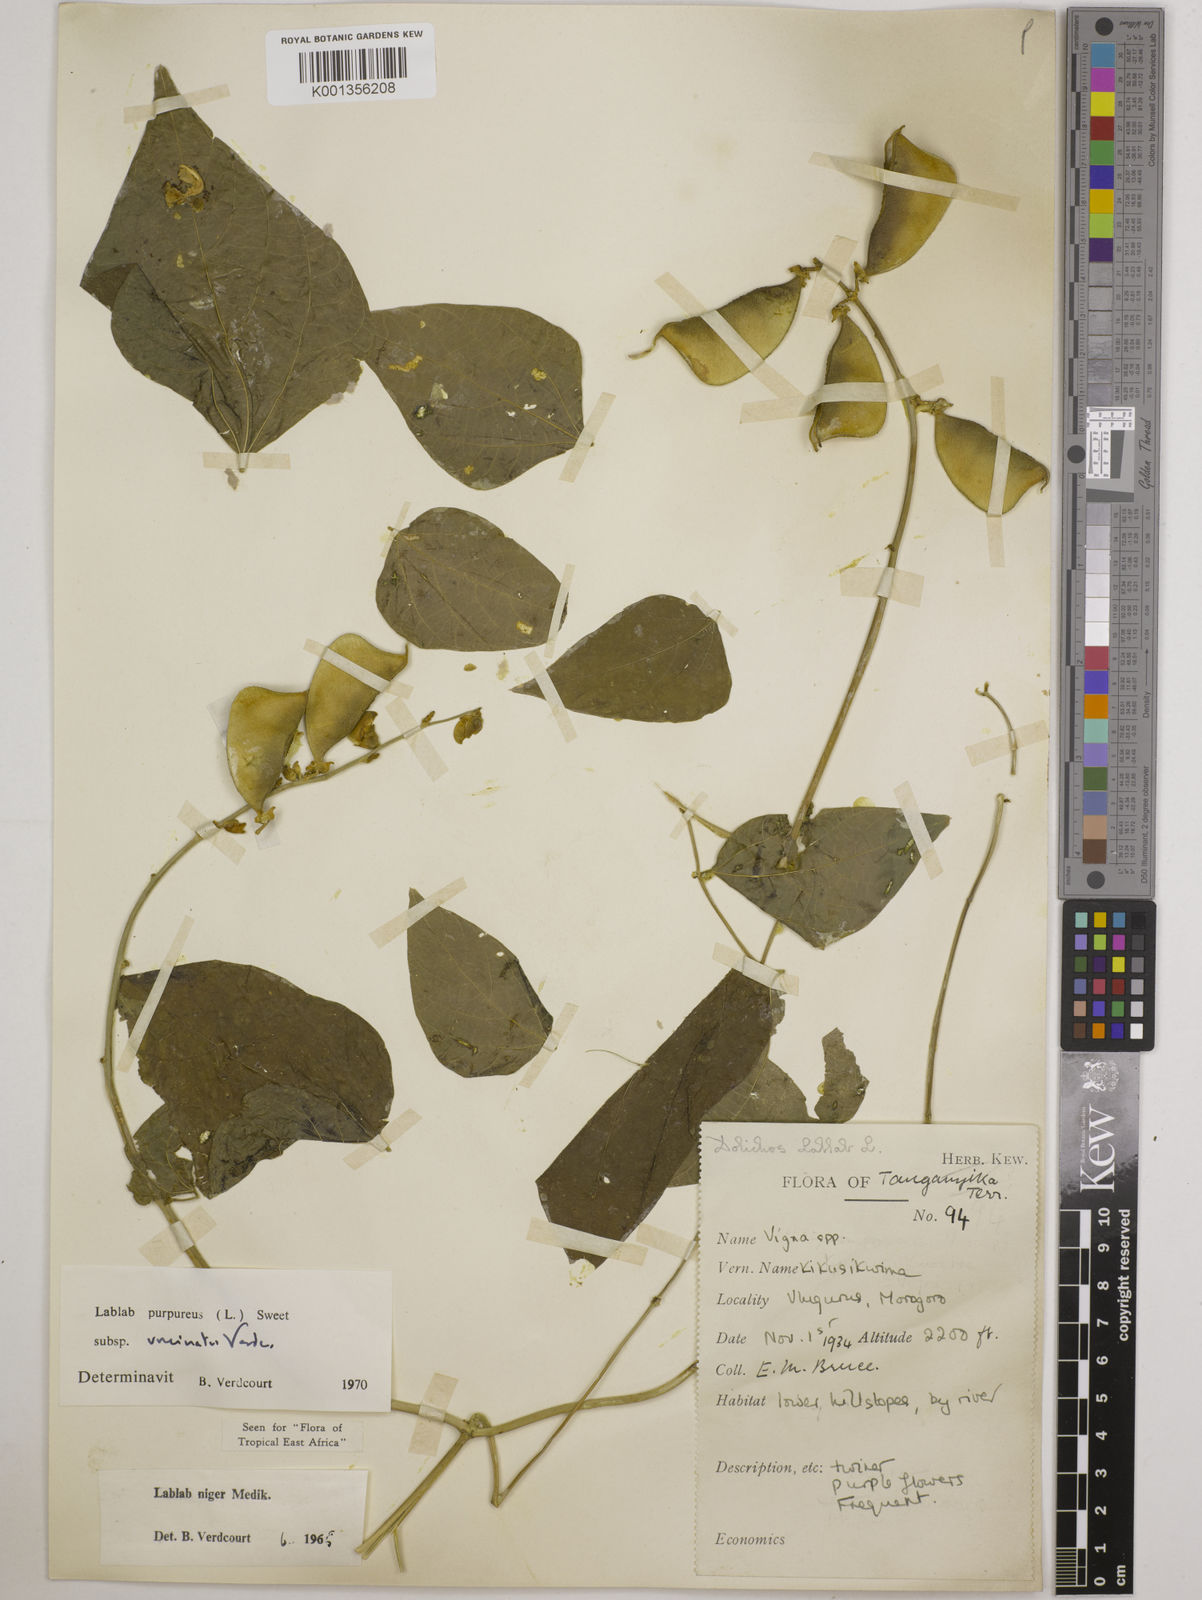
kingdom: Plantae
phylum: Tracheophyta
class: Magnoliopsida
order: Fabales
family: Fabaceae
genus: Lablab
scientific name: Lablab purpureus
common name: Lablab-bean
